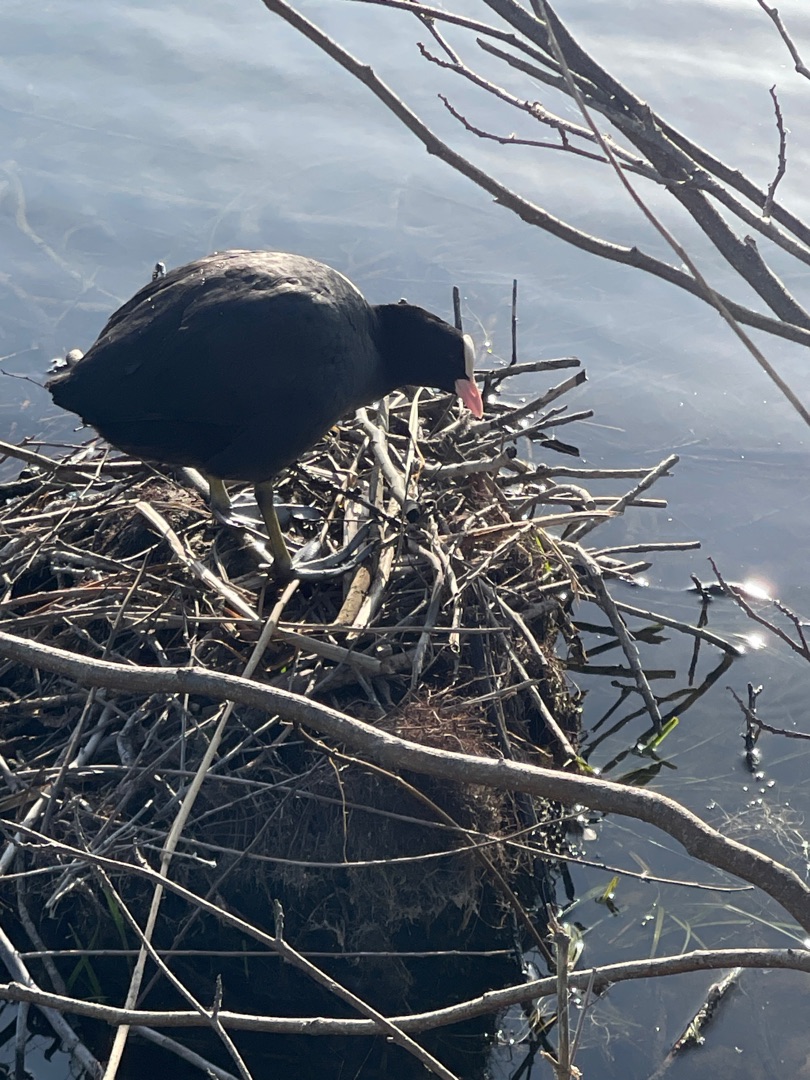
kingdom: Animalia
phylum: Chordata
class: Aves
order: Gruiformes
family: Rallidae
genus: Fulica
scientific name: Fulica atra
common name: Blishøne
